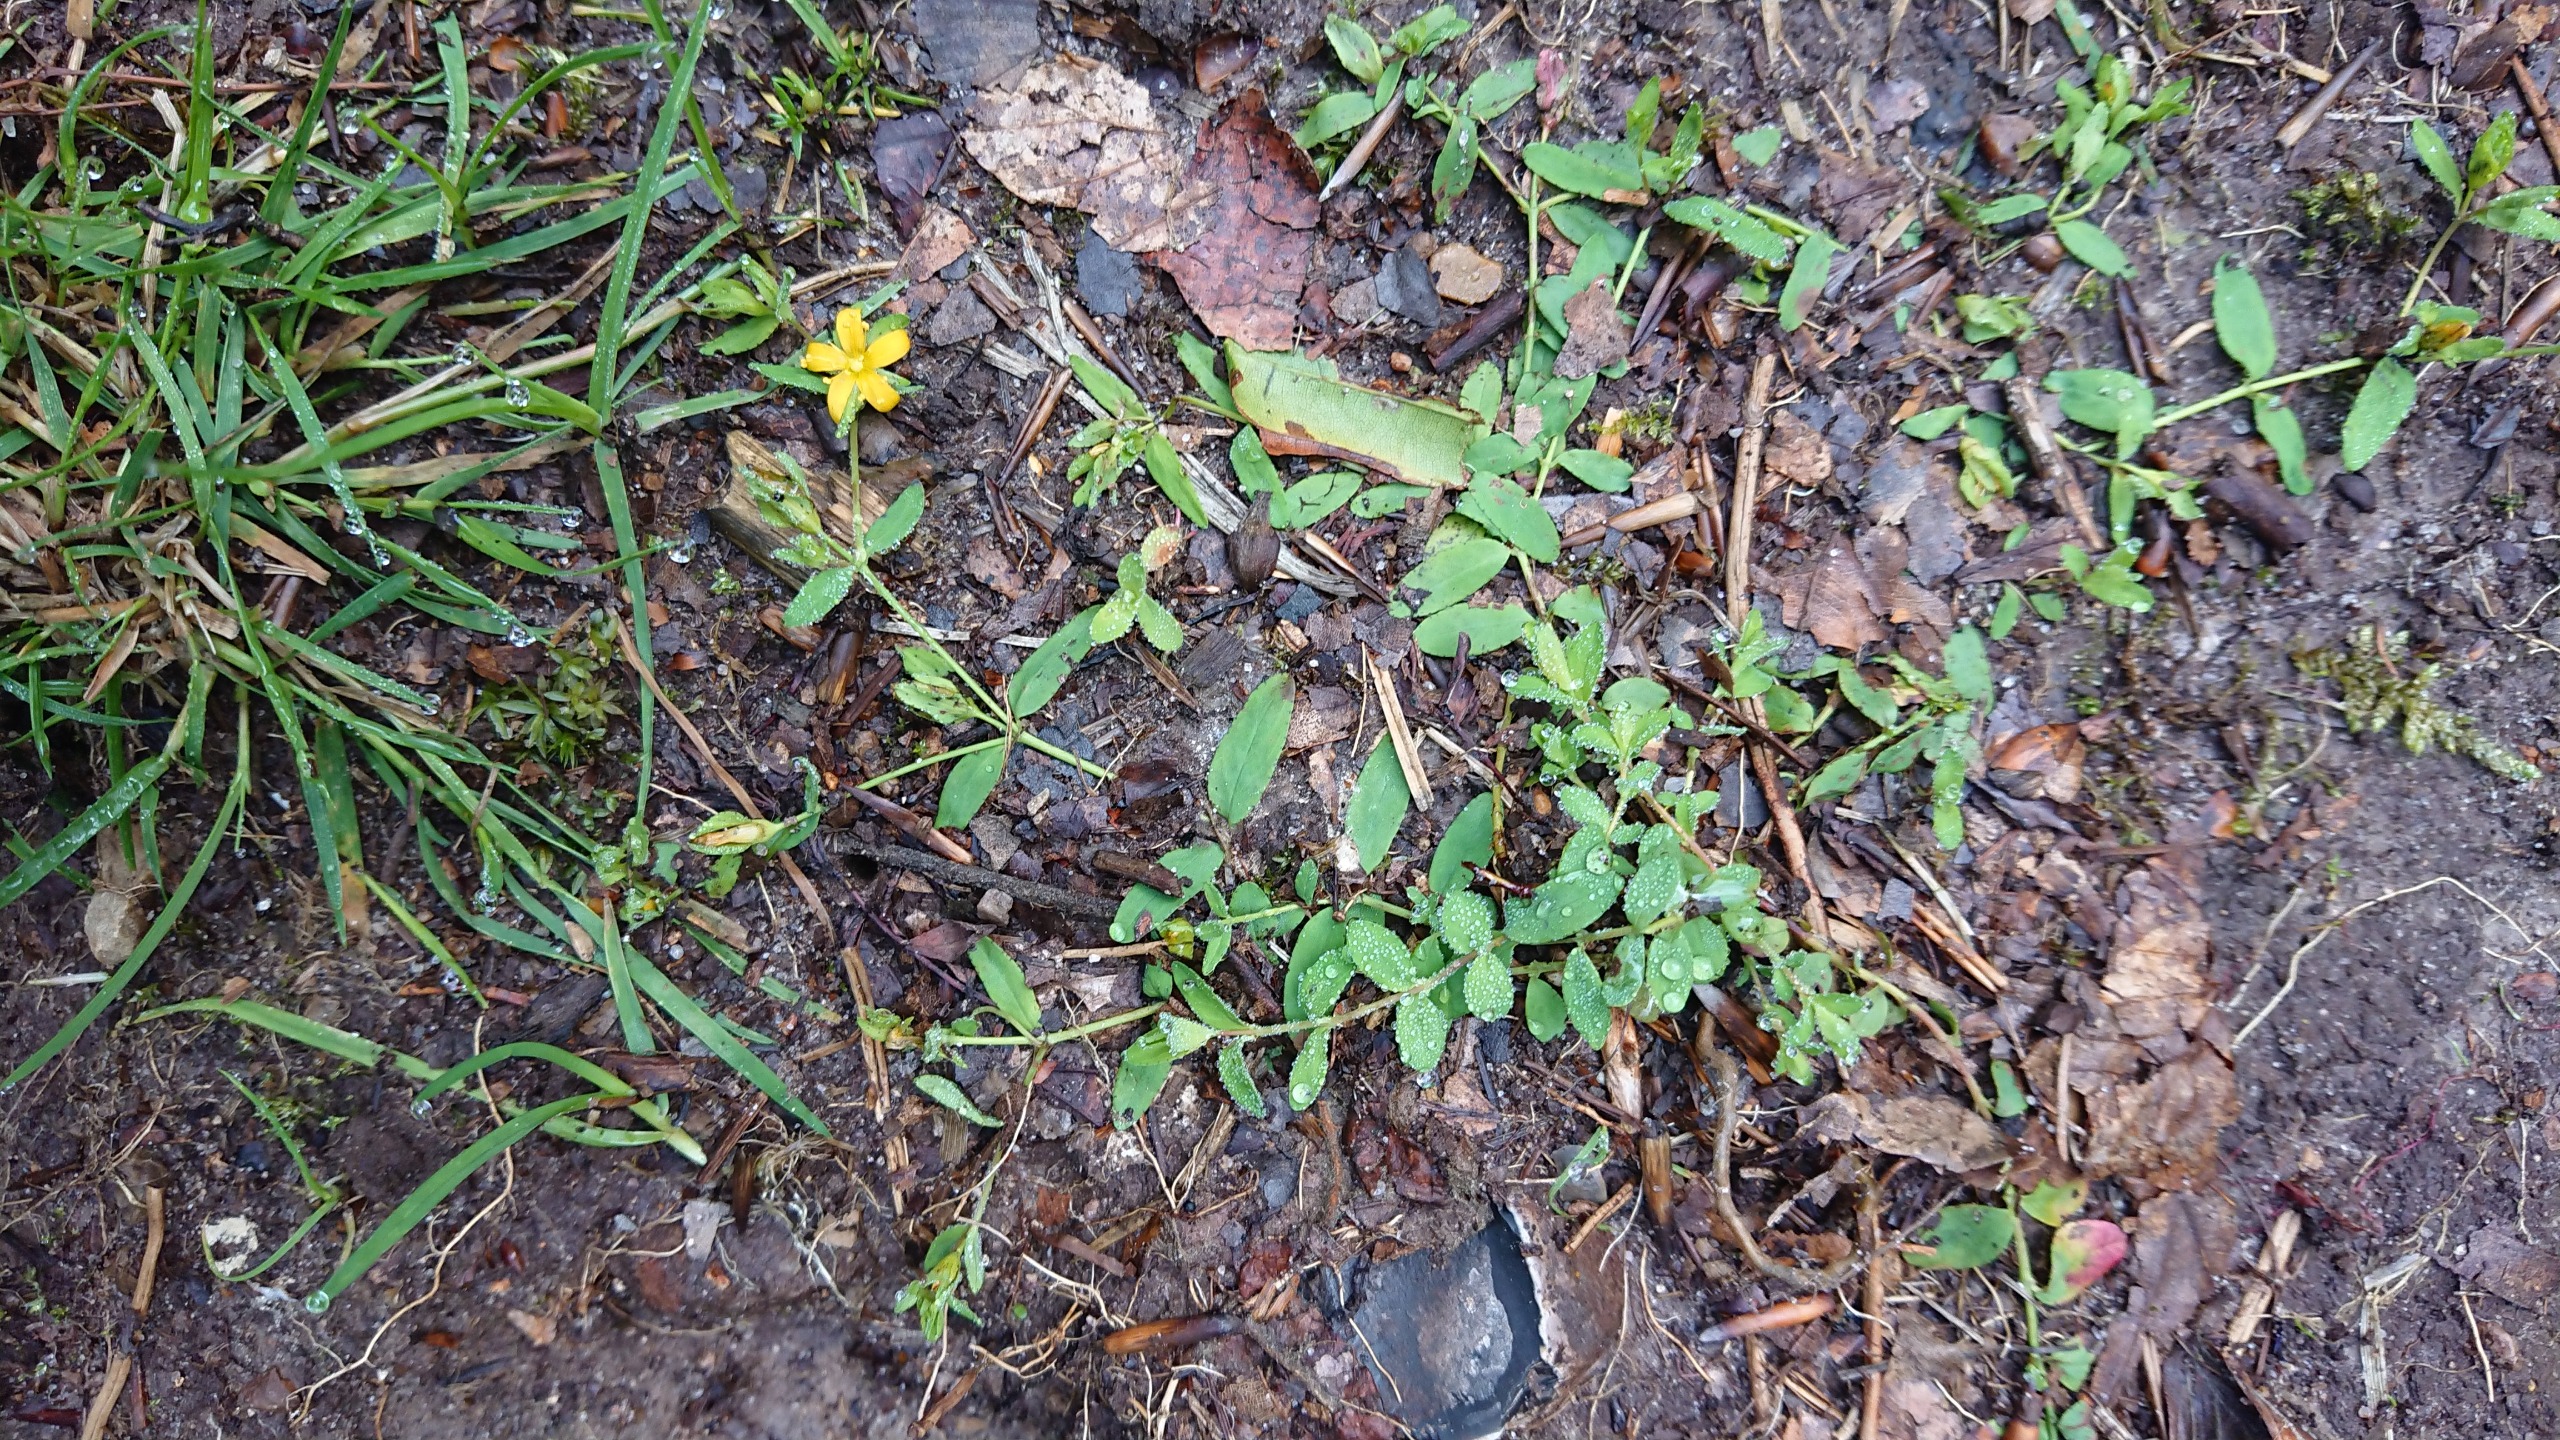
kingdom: Plantae
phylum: Tracheophyta
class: Magnoliopsida
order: Malpighiales
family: Hypericaceae
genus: Hypericum
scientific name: Hypericum humifusum
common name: Dværg-perikon
